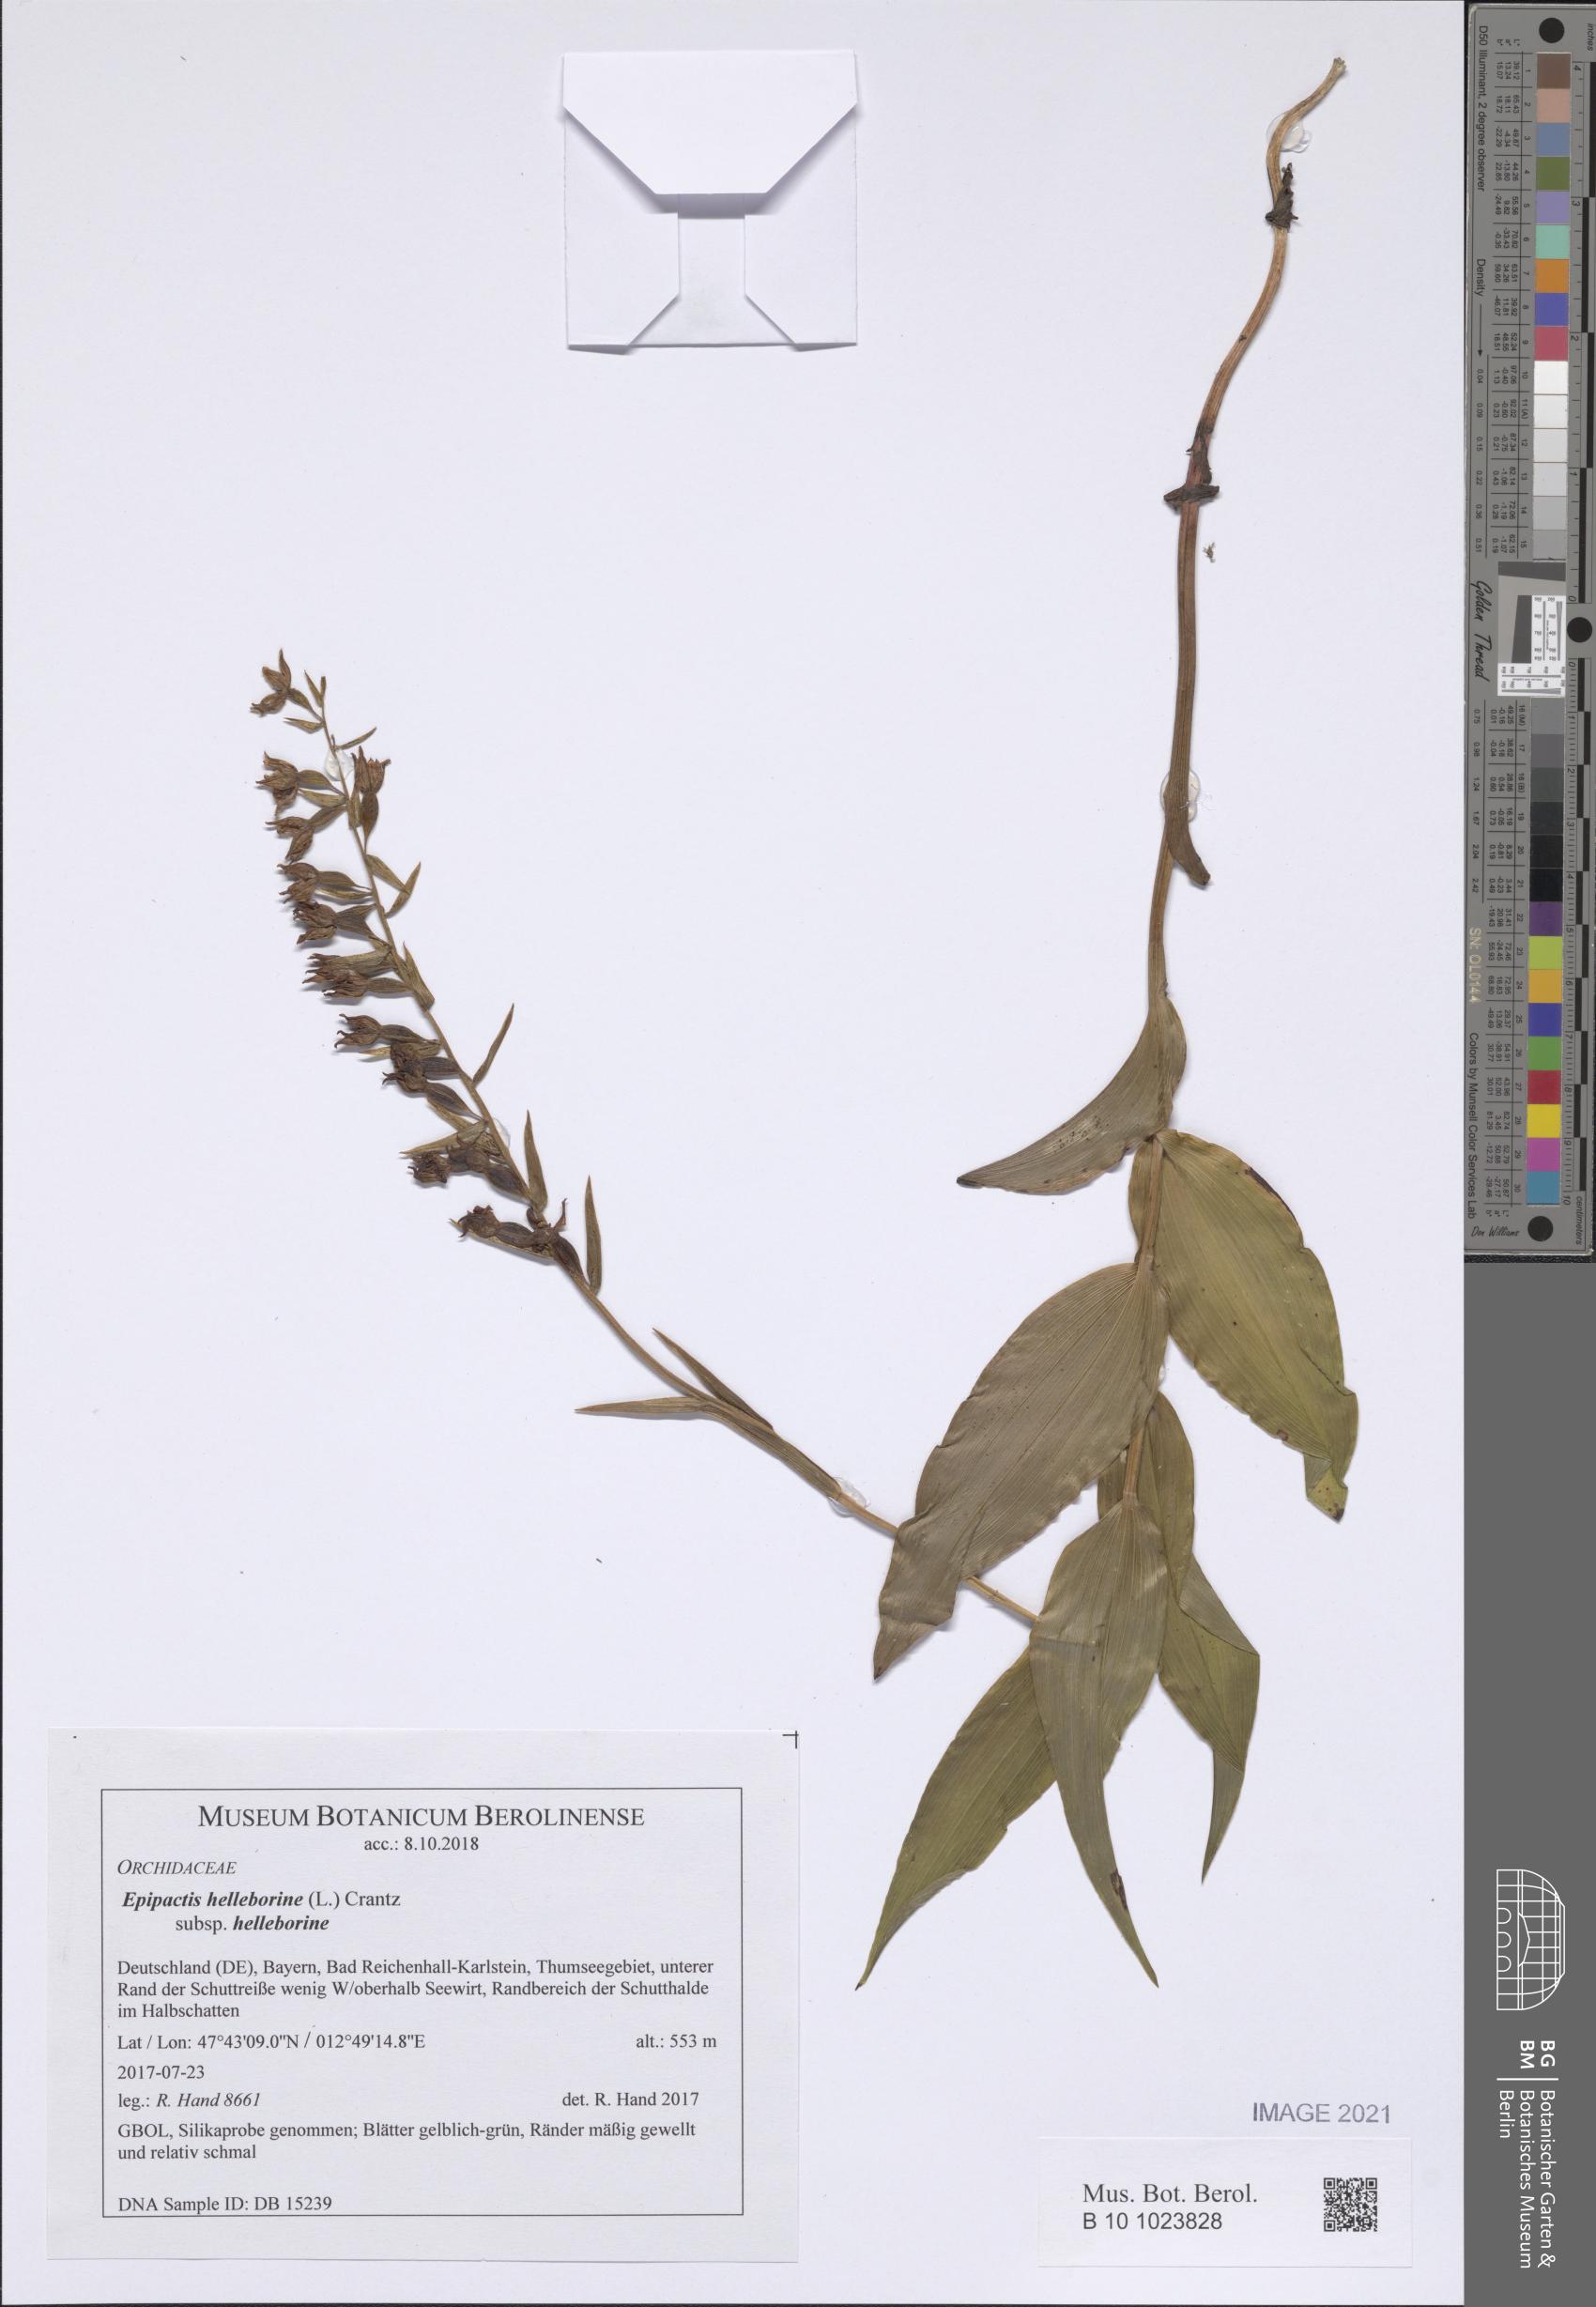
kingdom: Plantae
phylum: Tracheophyta
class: Liliopsida
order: Asparagales
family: Orchidaceae
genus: Epipactis
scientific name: Epipactis helleborine
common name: Broad-leaved helleborine
